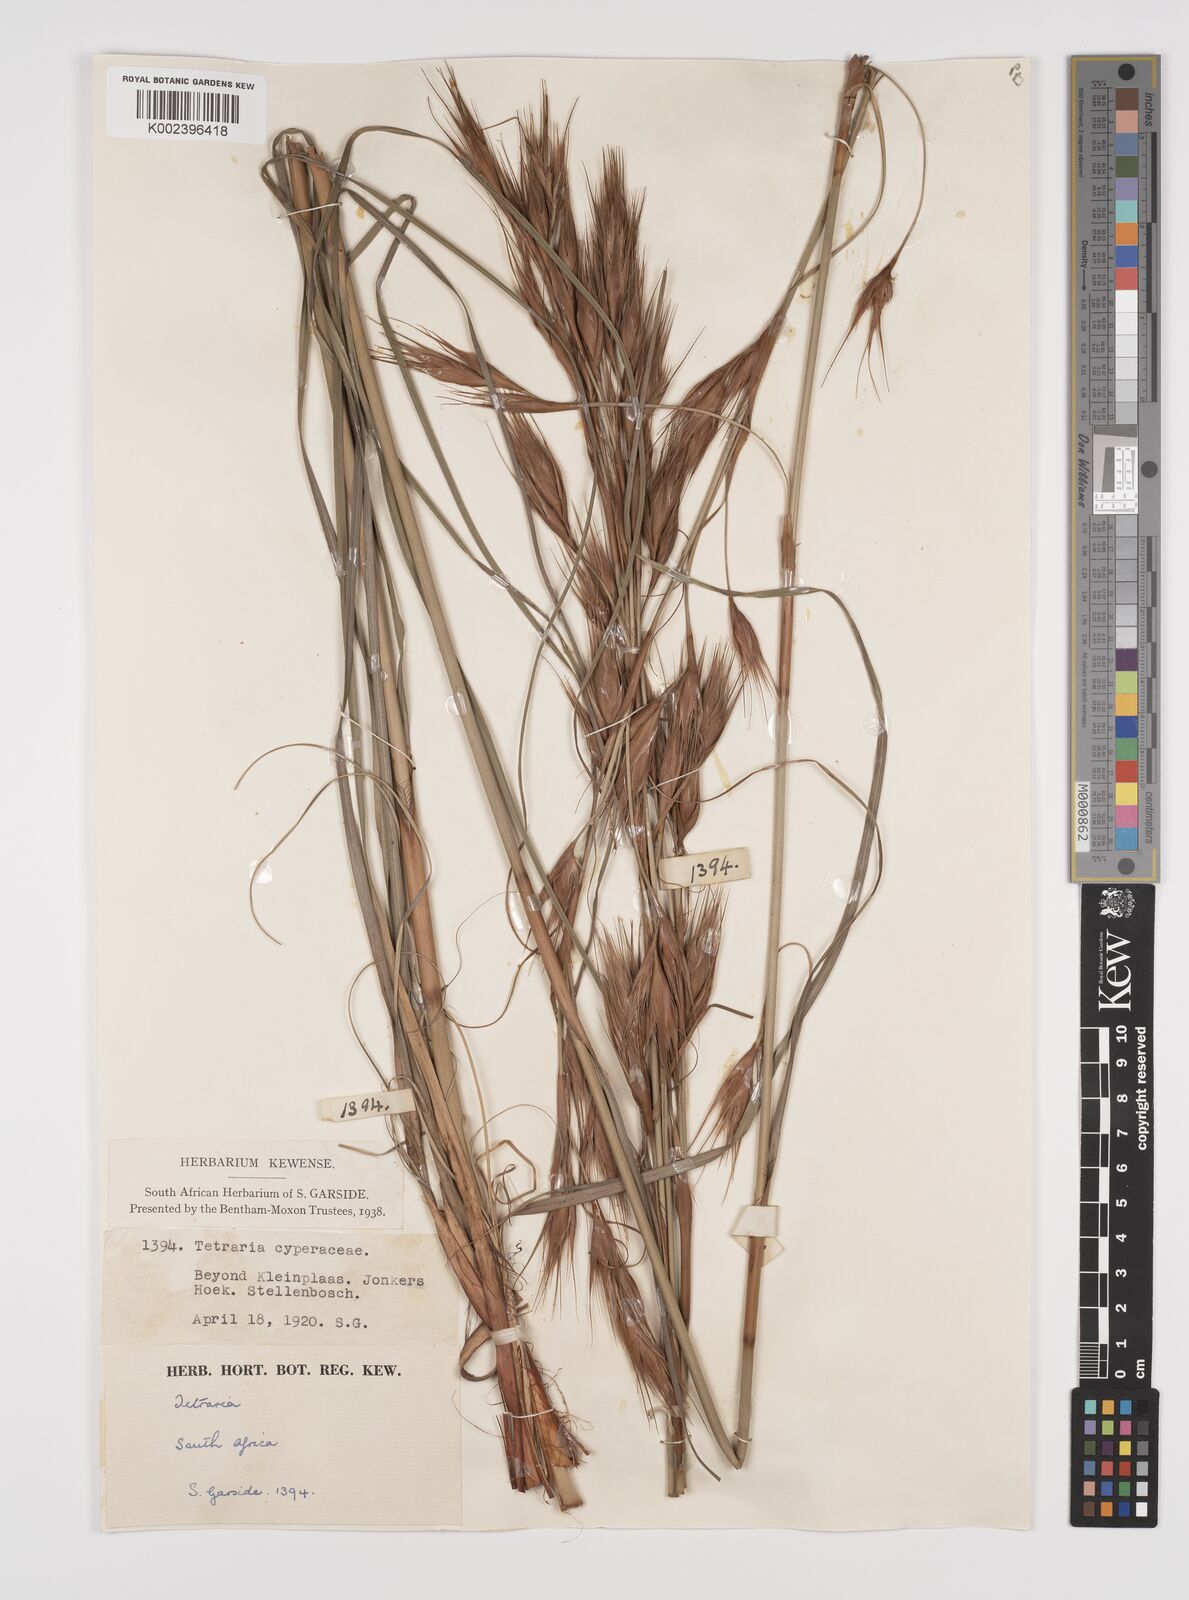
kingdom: Plantae
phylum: Tracheophyta
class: Liliopsida
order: Poales
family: Cyperaceae
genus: Tetraria
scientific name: Tetraria
